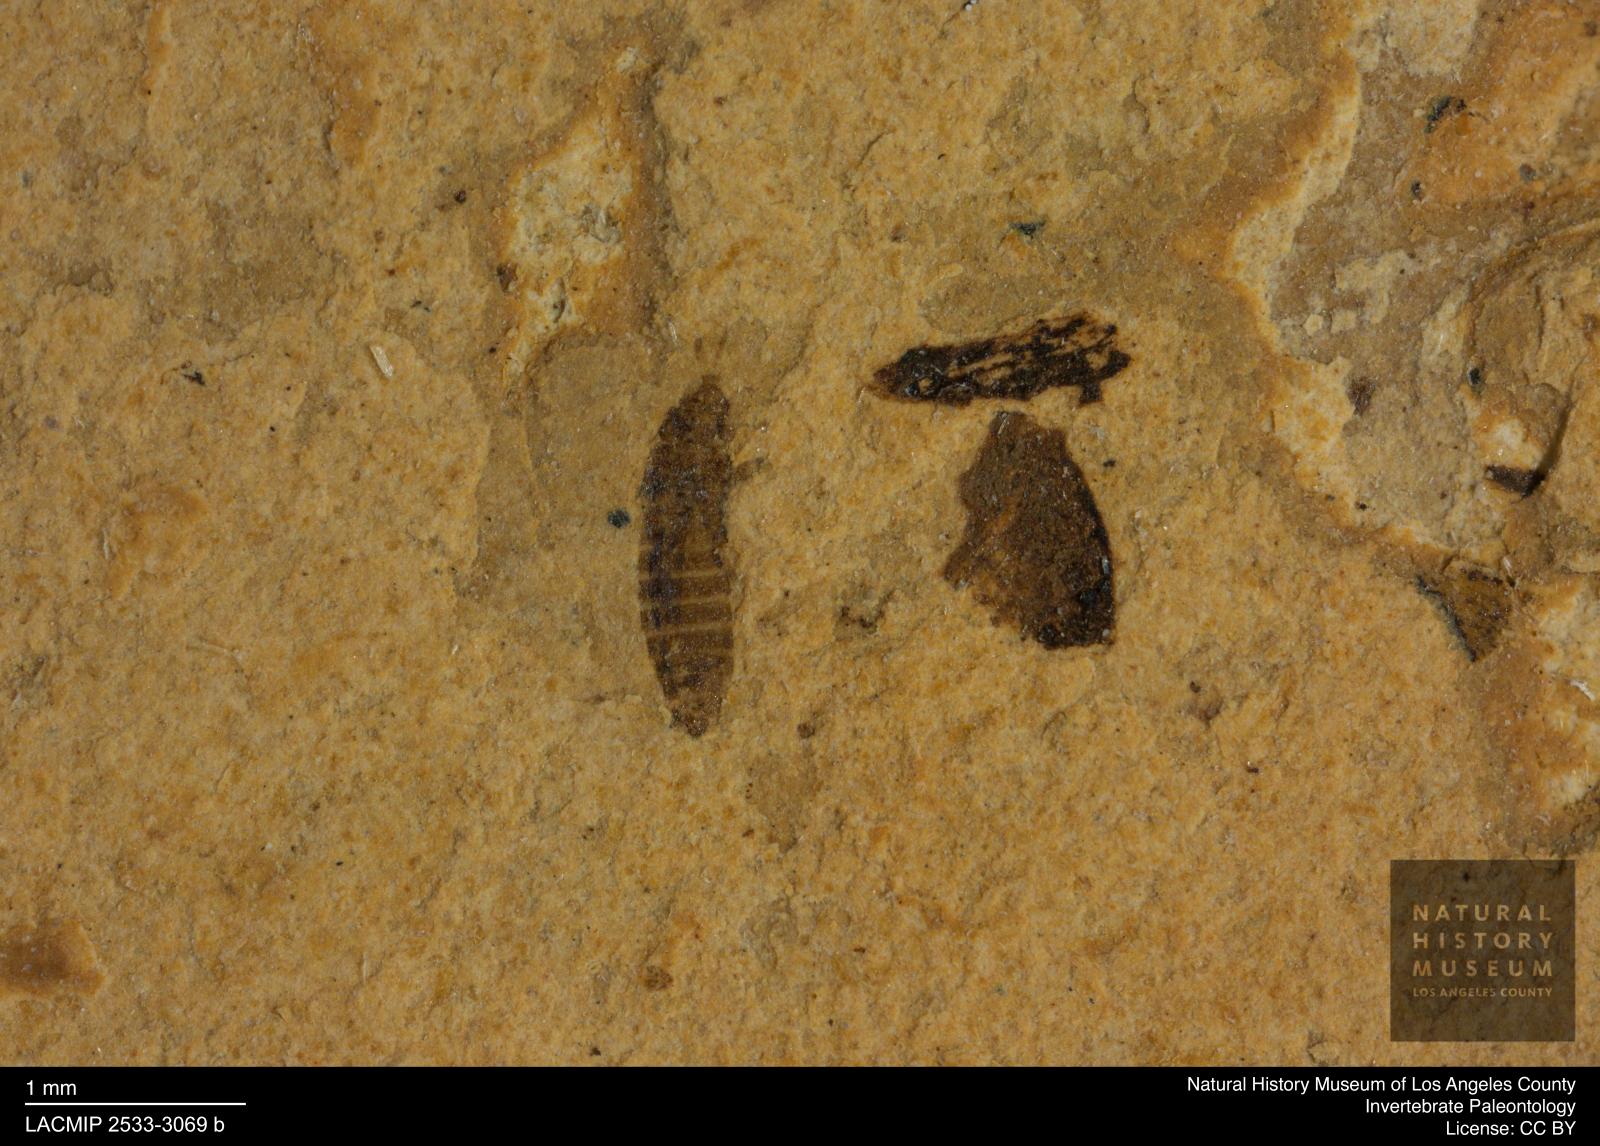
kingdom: Animalia
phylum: Arthropoda
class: Insecta
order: Thysanoptera
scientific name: Thysanoptera
